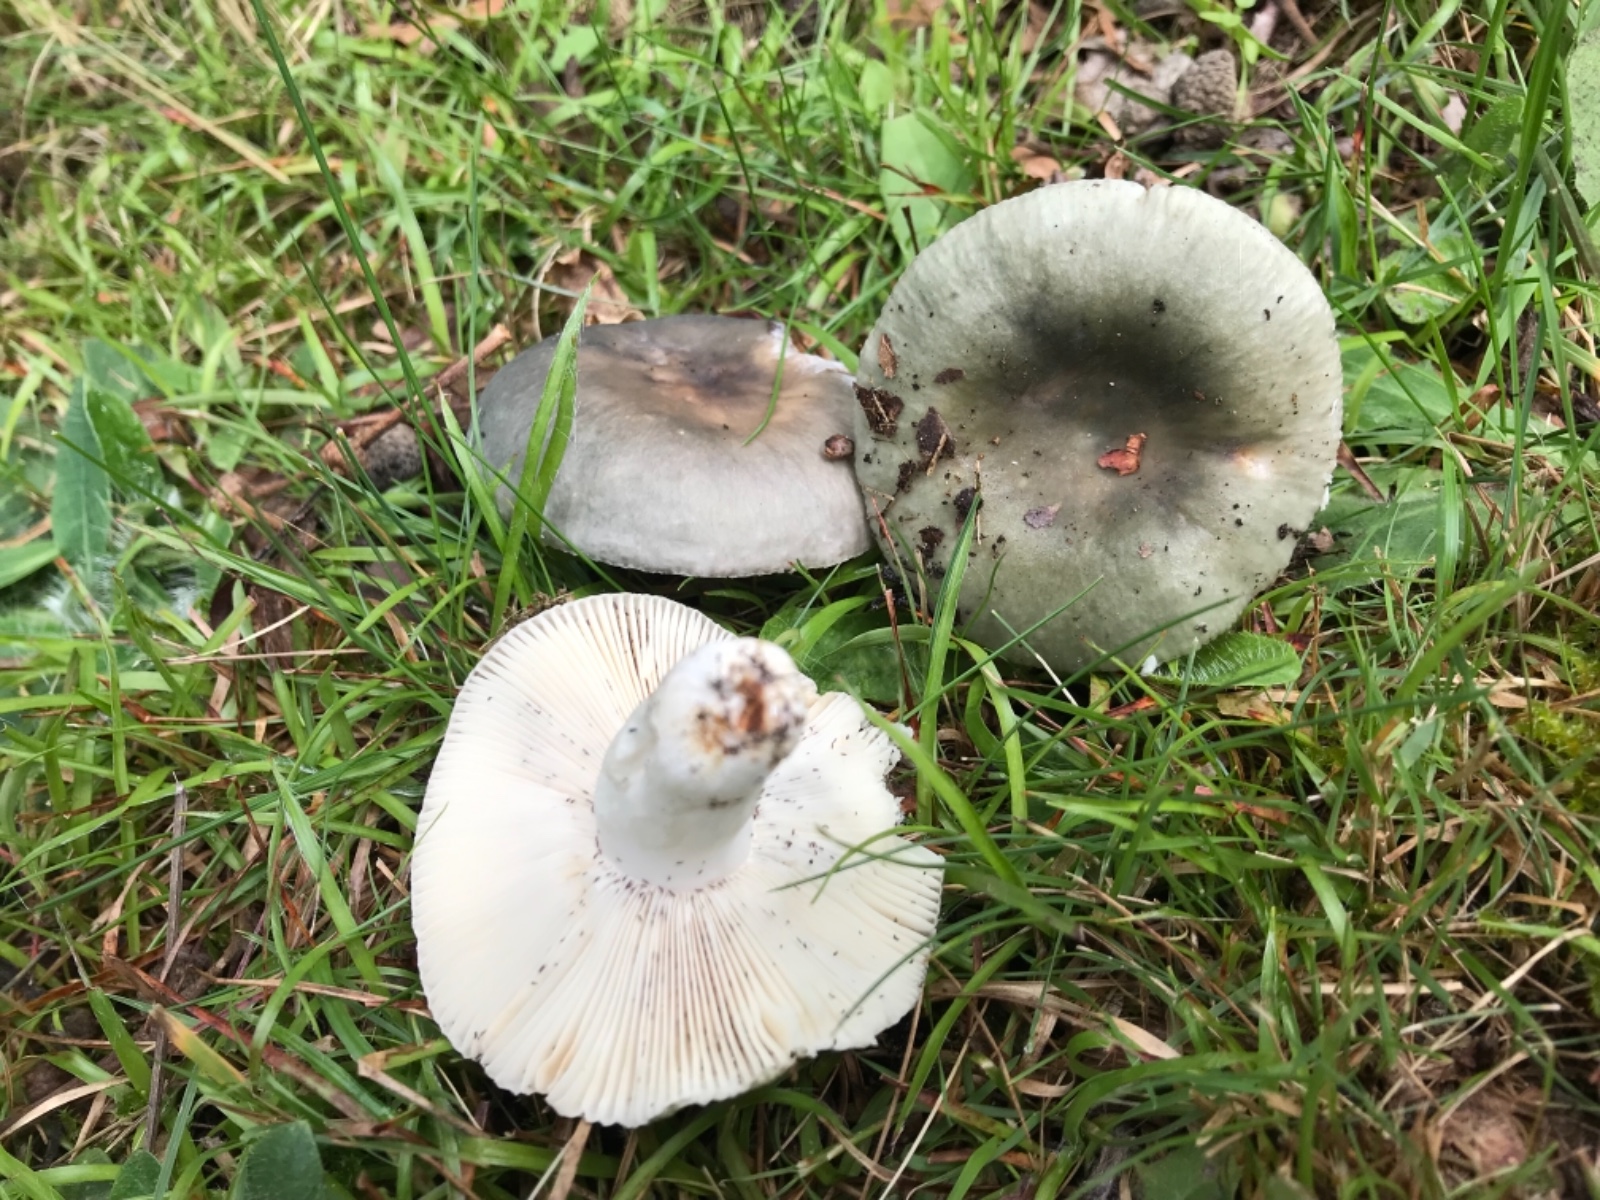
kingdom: Fungi
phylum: Basidiomycota
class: Agaricomycetes
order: Russulales
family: Russulaceae
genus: Russula
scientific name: Russula parazurea
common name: blågrå skørhat
